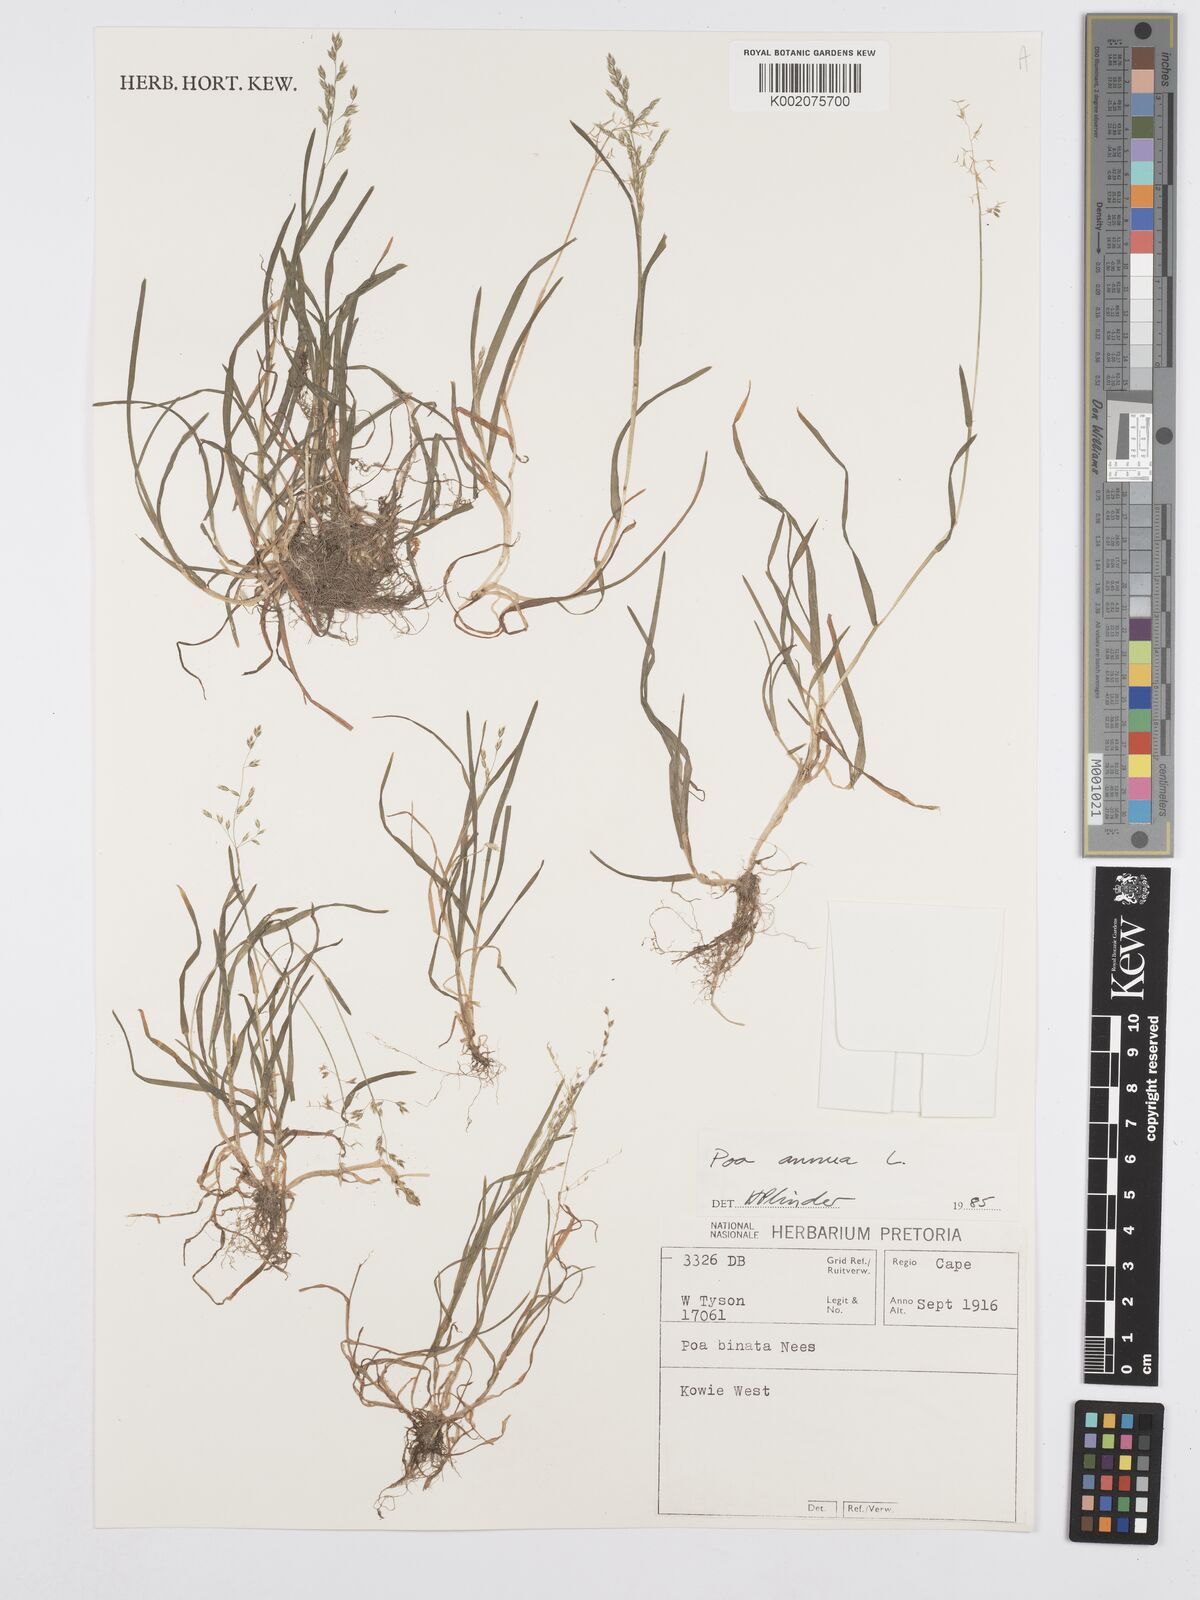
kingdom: Plantae
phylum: Tracheophyta
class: Liliopsida
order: Poales
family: Poaceae
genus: Poa
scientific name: Poa annua
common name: Annual bluegrass
